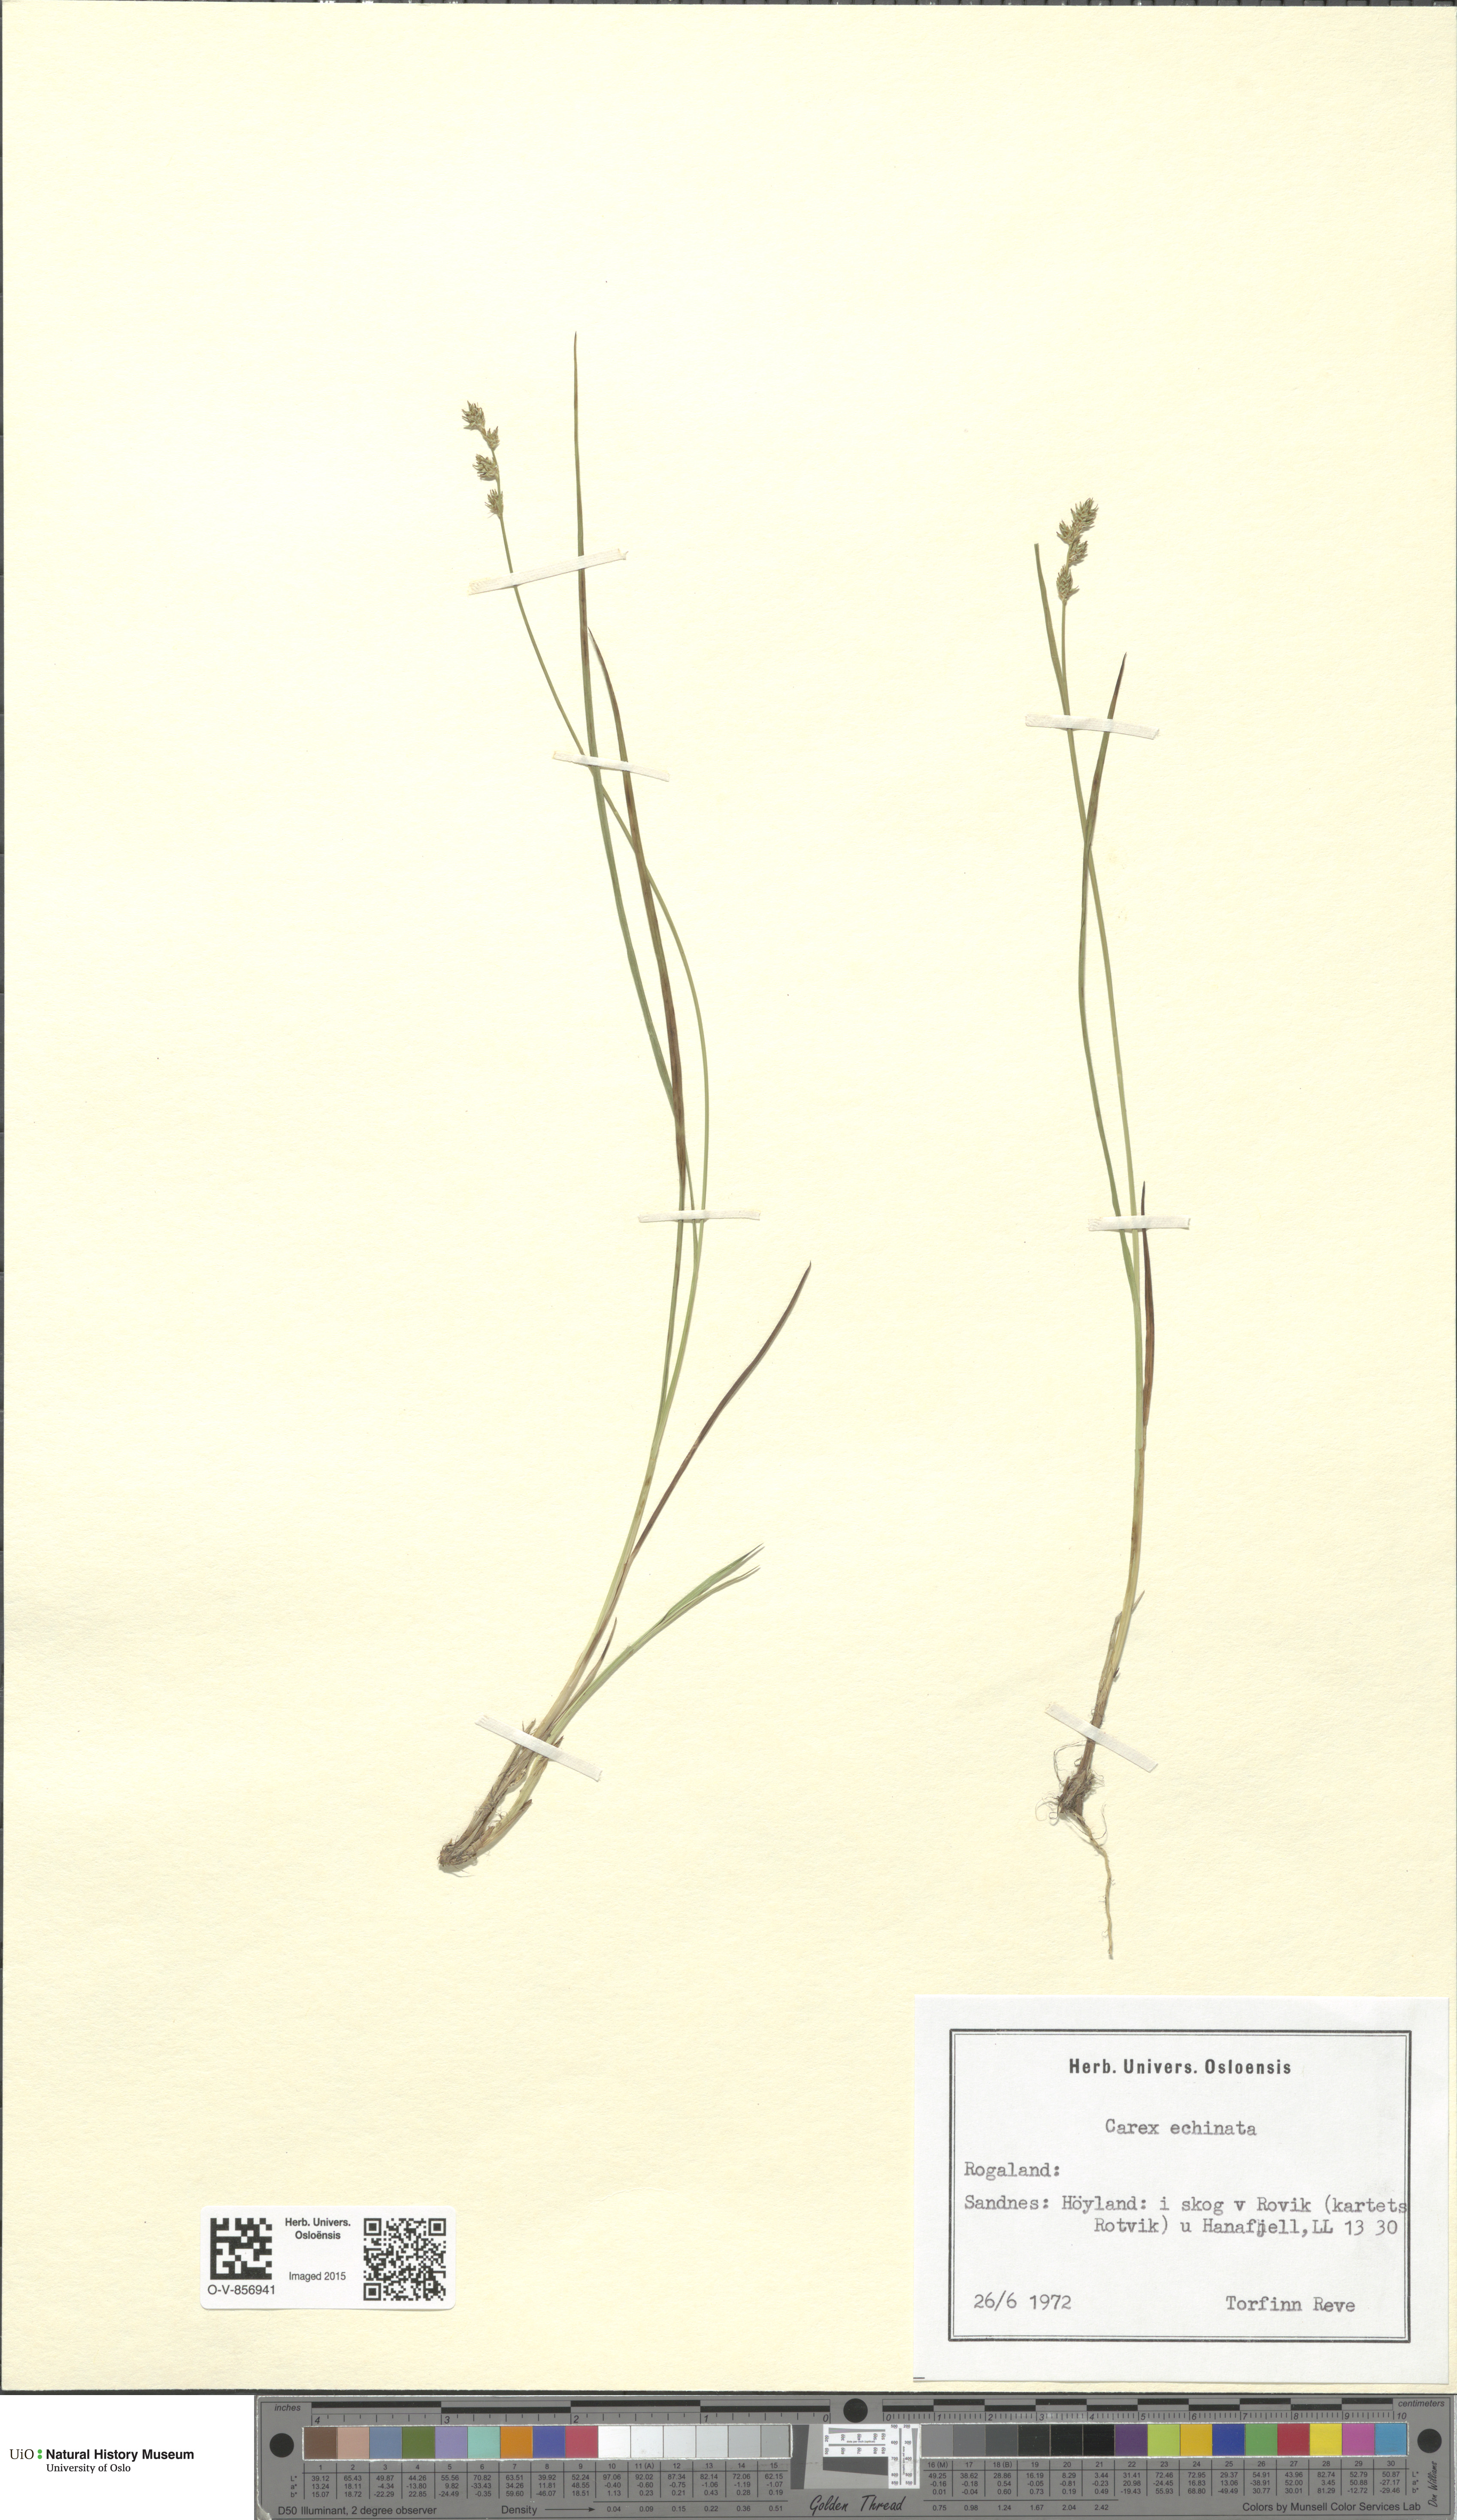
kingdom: Plantae
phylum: Tracheophyta
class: Liliopsida
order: Poales
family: Cyperaceae
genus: Carex
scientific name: Carex echinata
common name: Star sedge
